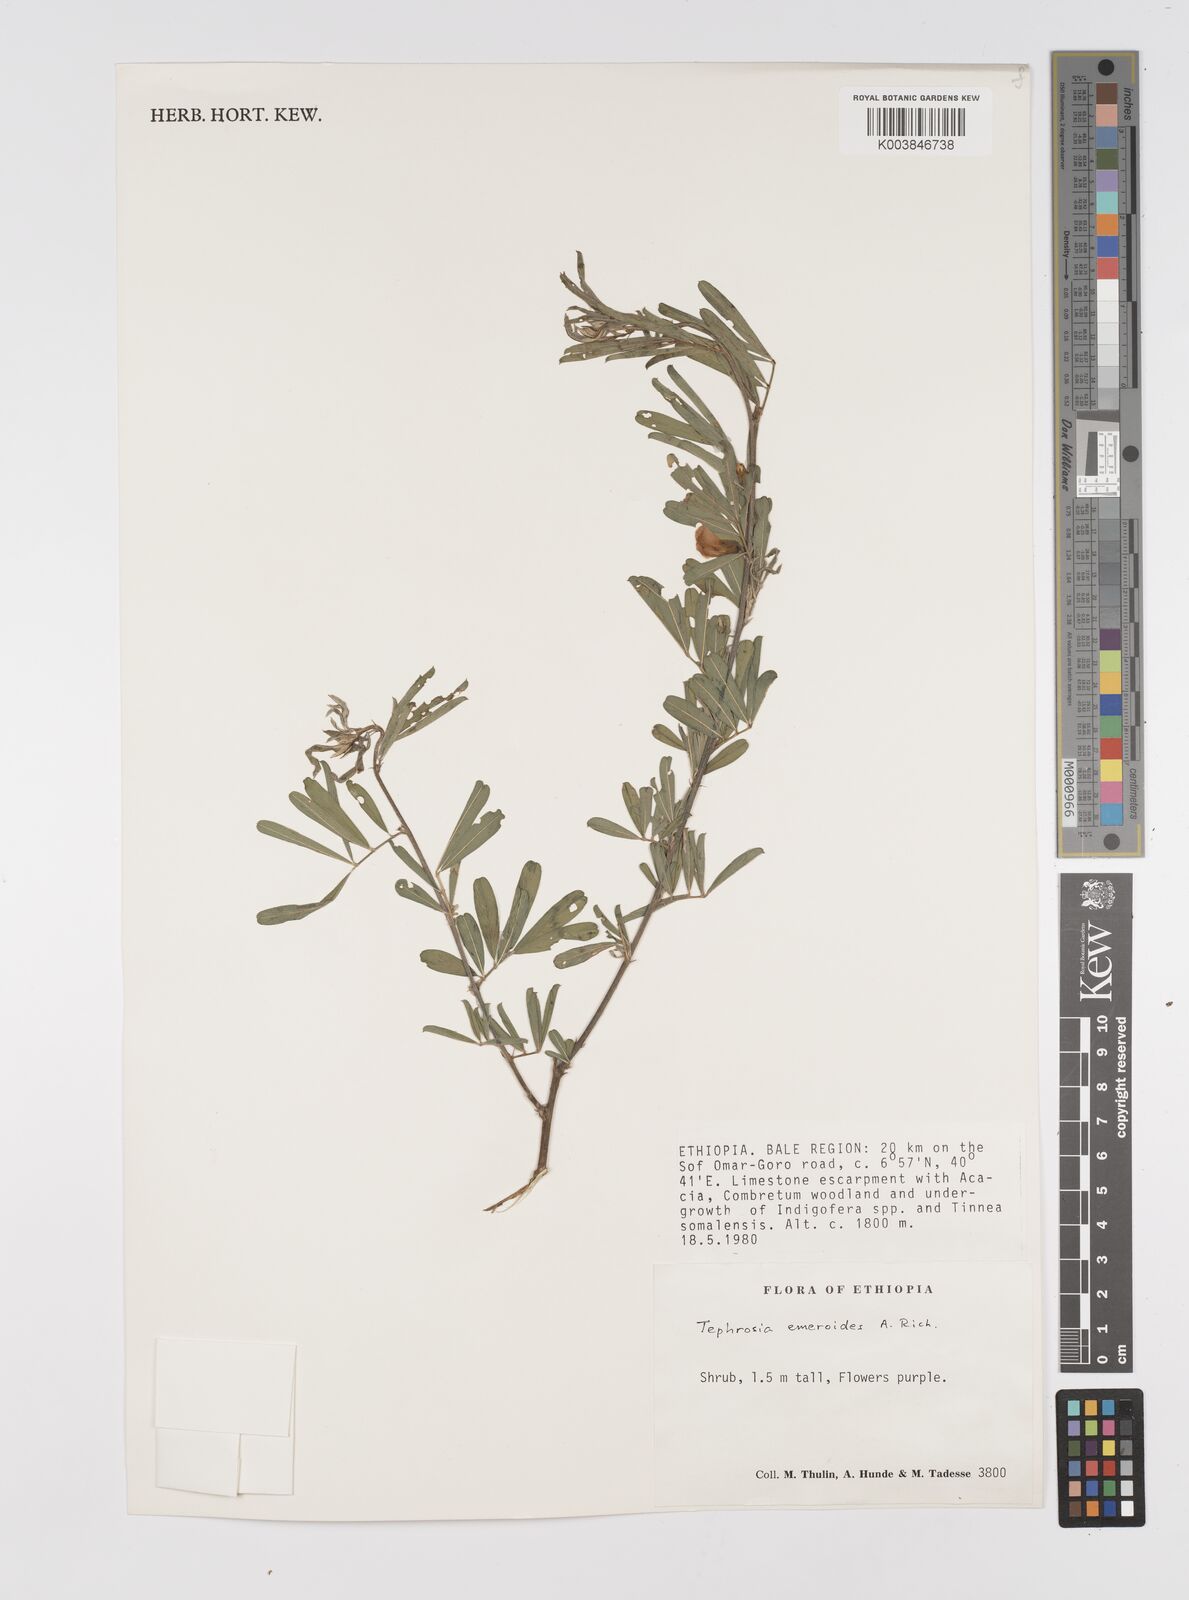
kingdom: Plantae
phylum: Tracheophyta
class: Magnoliopsida
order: Fabales
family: Fabaceae
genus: Tephrosia
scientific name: Tephrosia emeroides
